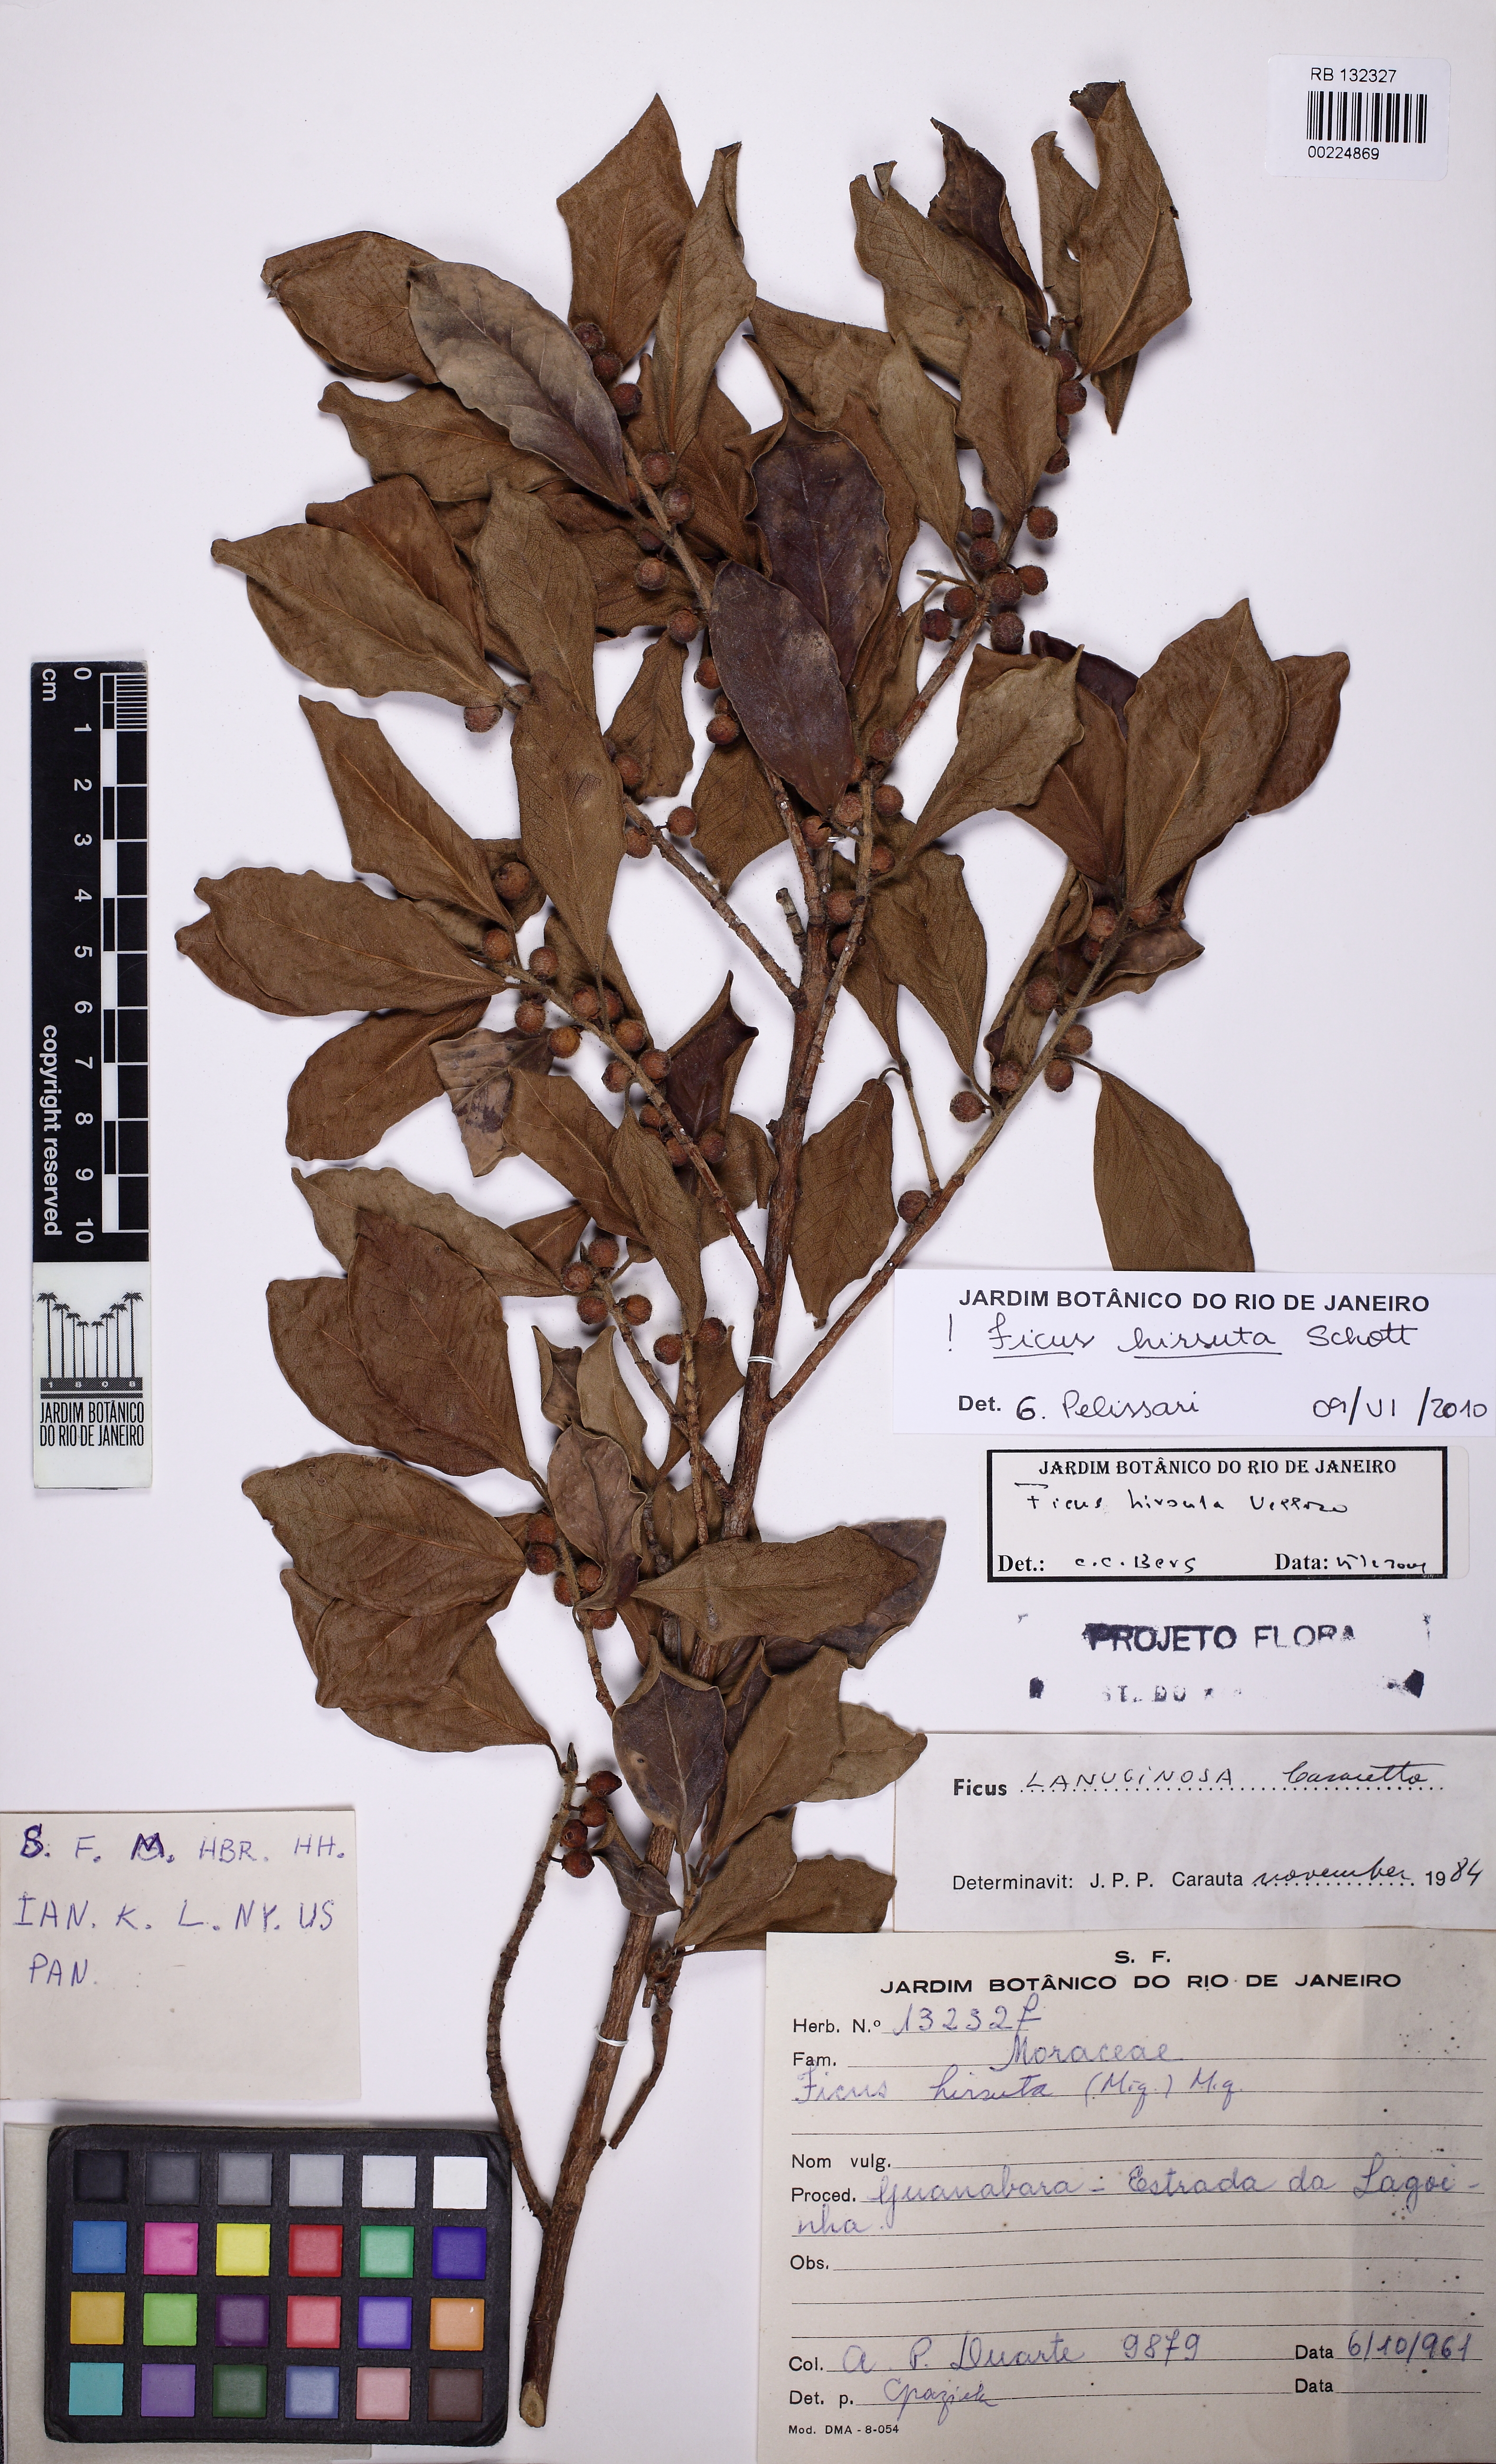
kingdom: Plantae
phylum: Tracheophyta
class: Magnoliopsida
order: Rosales
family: Moraceae
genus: Ficus
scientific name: Ficus hirsuta
